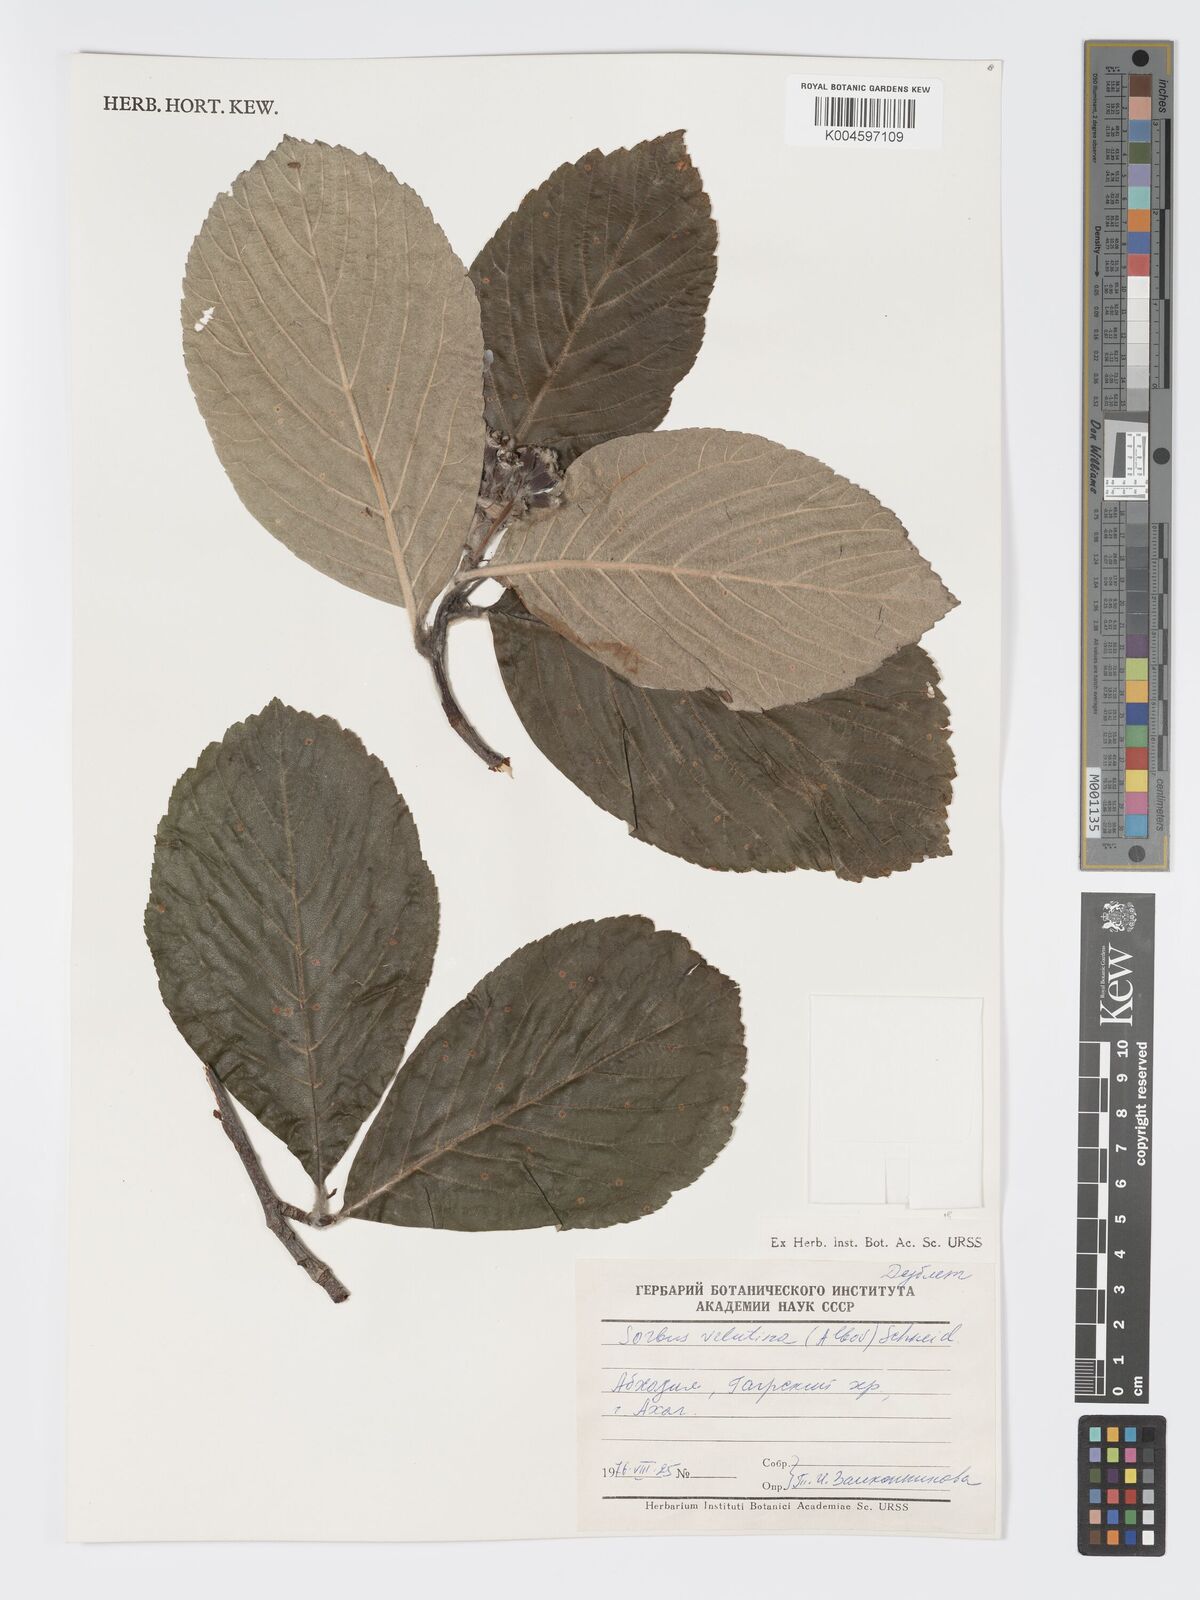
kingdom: Plantae
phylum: Tracheophyta
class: Magnoliopsida
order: Rosales
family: Rosaceae
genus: Sorbus
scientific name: Sorbus subfusca
